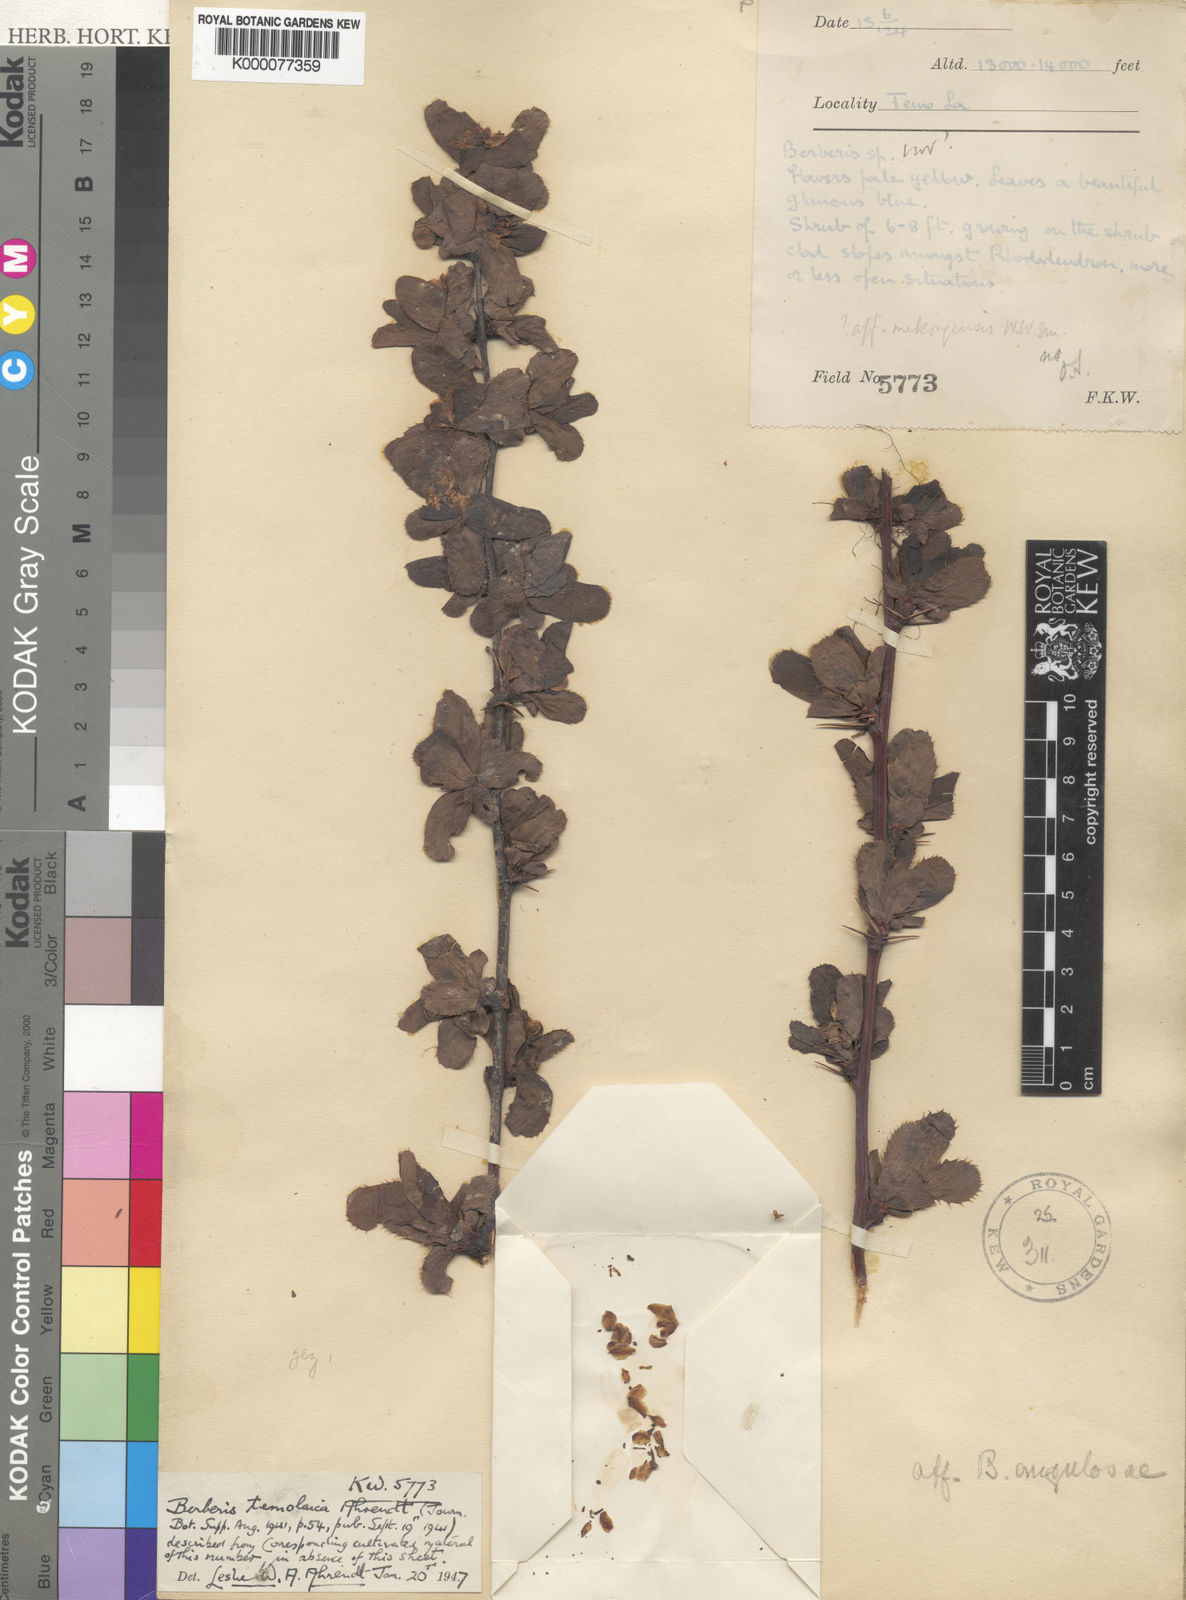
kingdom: Plantae
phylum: Tracheophyta
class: Magnoliopsida
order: Ranunculales
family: Berberidaceae
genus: Berberis
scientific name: Berberis temolaica
